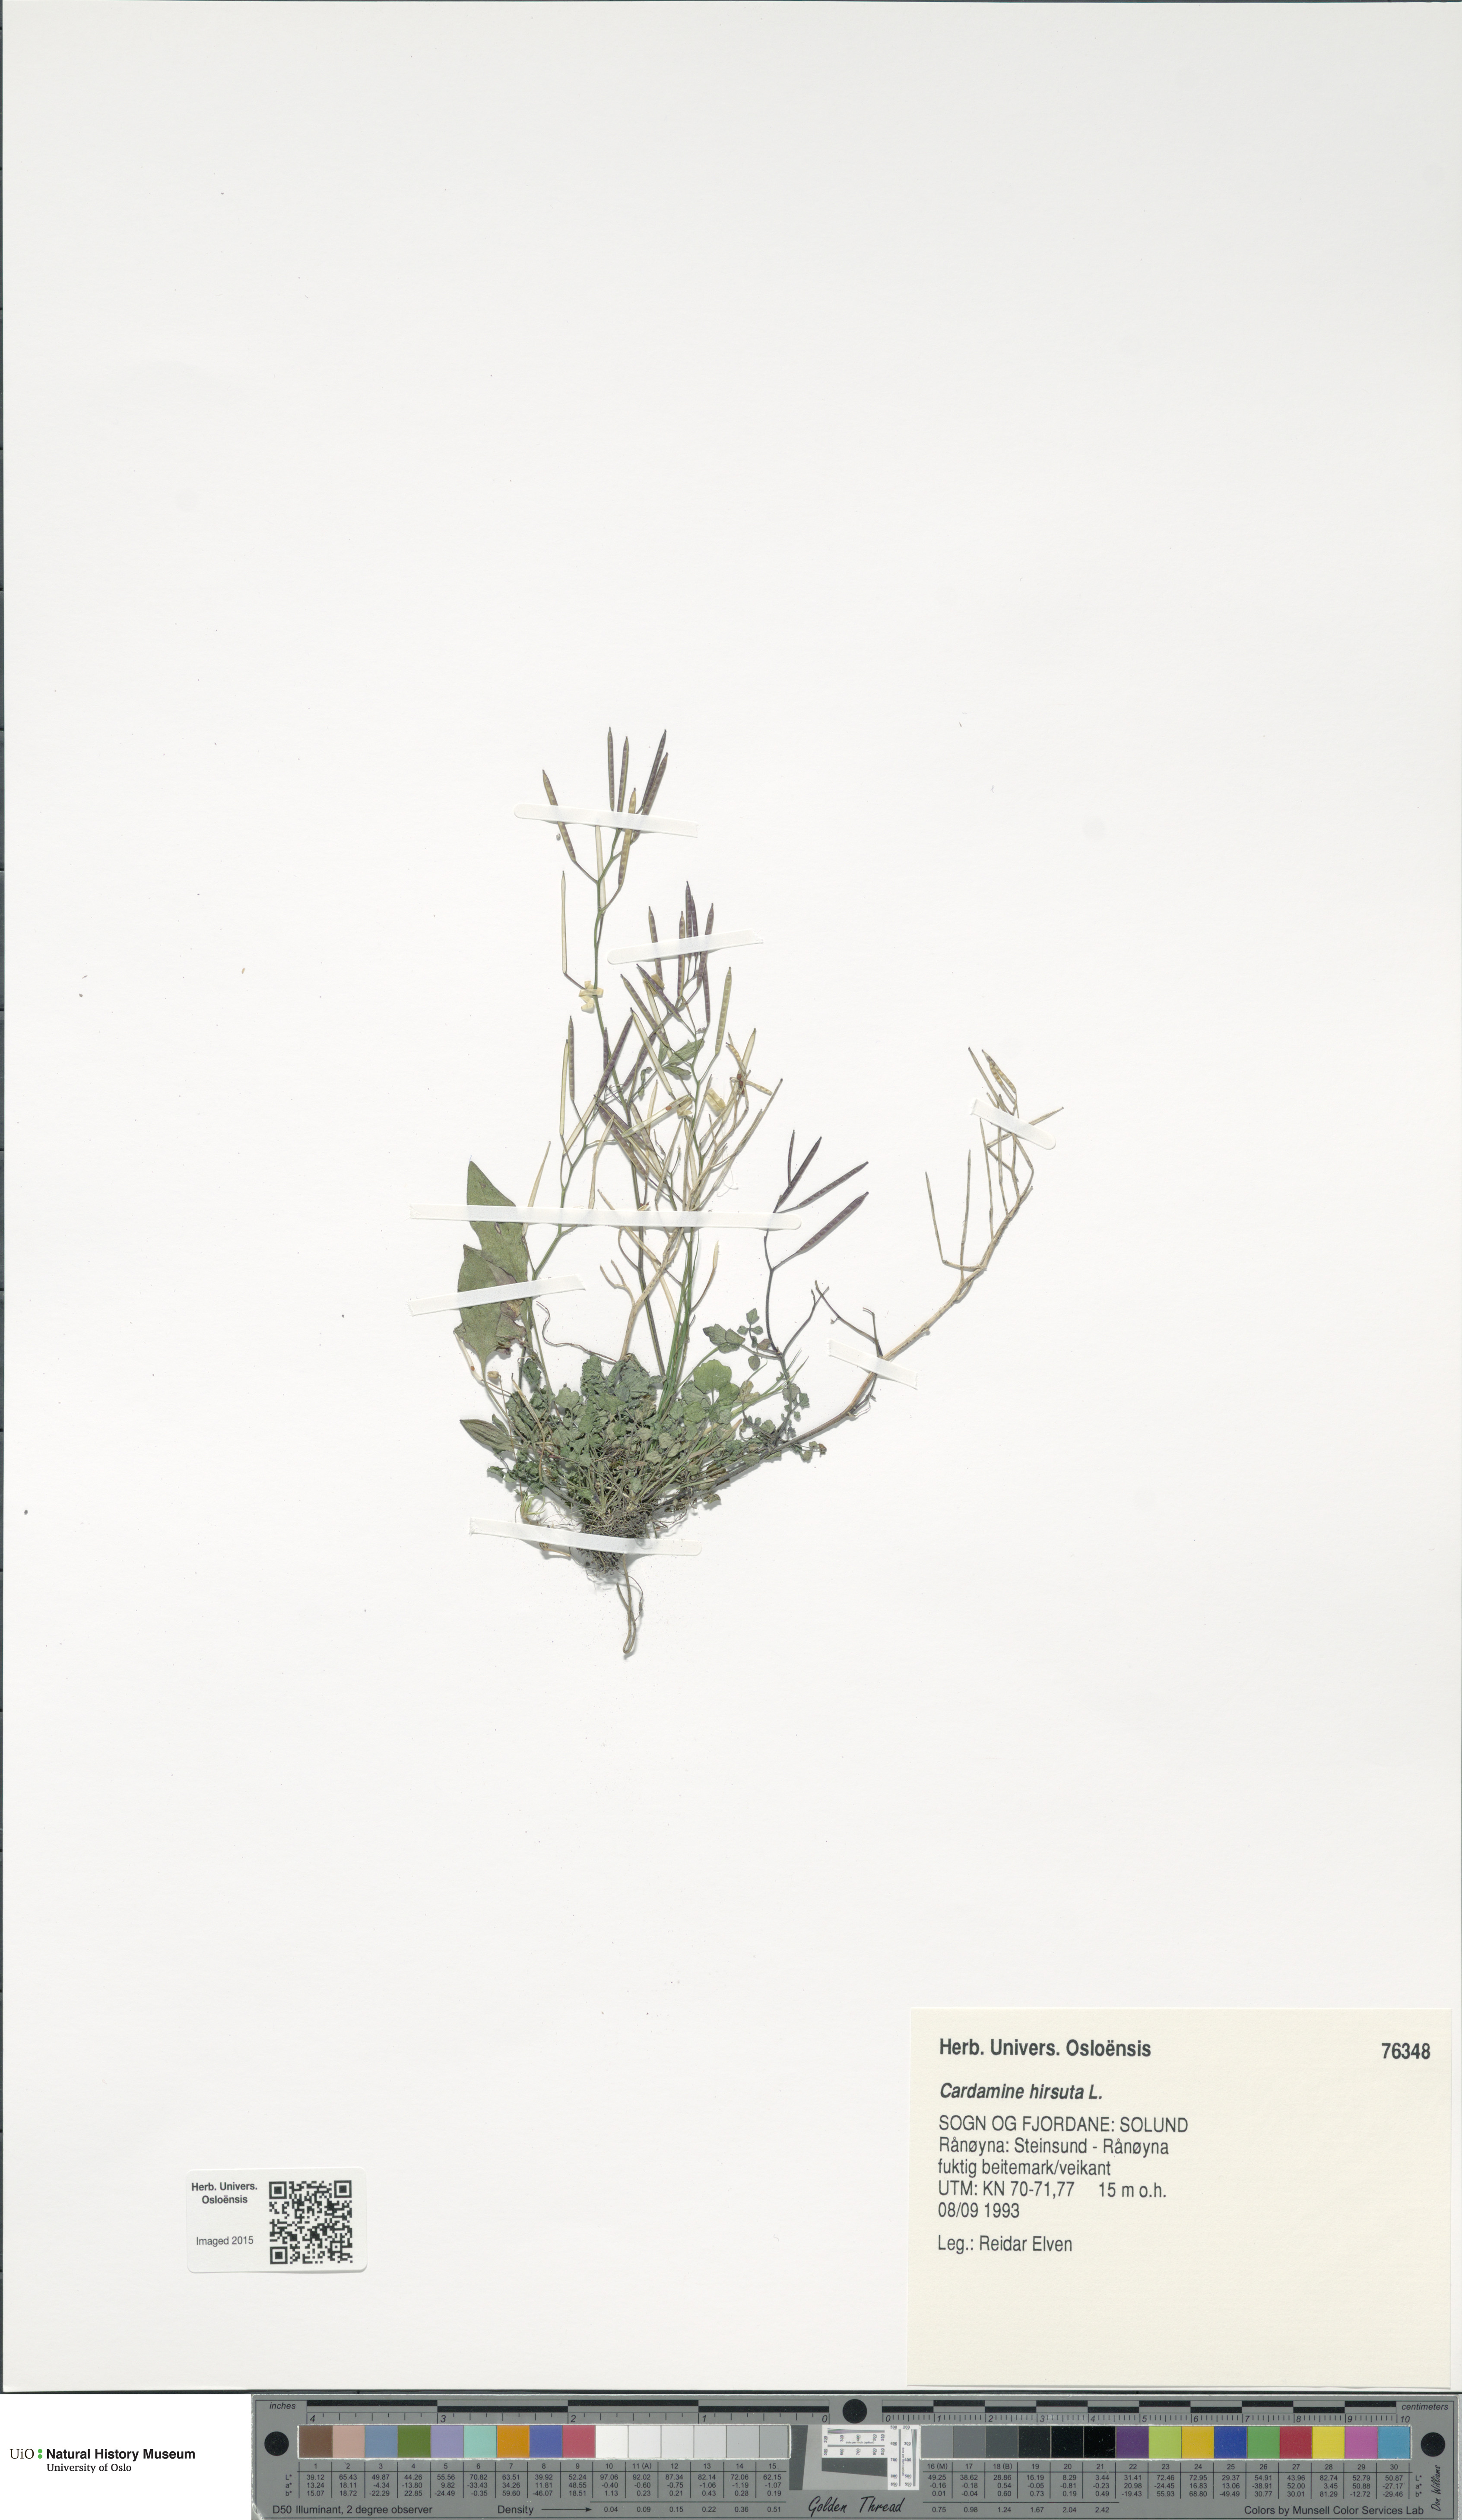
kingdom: Plantae
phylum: Tracheophyta
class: Magnoliopsida
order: Brassicales
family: Brassicaceae
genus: Cardamine
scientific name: Cardamine hirsuta
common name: Hairy bittercress
